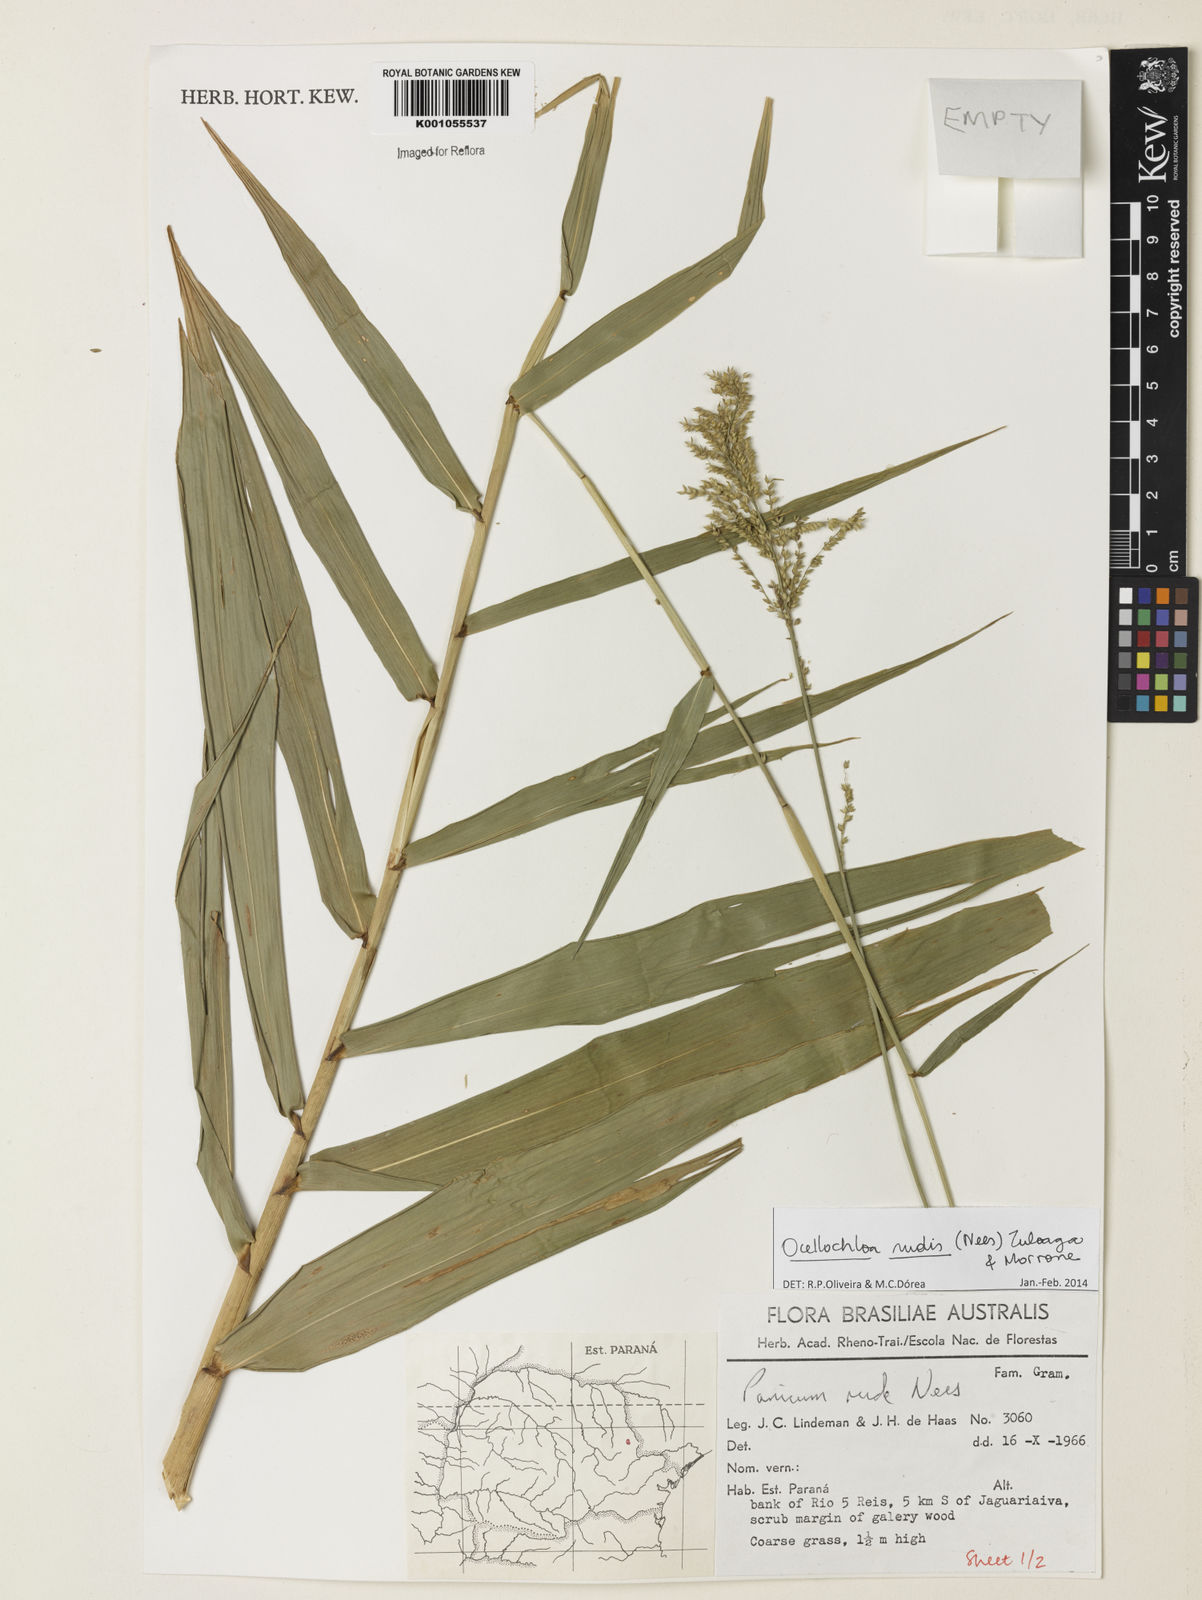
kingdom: Plantae
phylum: Tracheophyta
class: Liliopsida
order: Poales
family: Poaceae
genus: Ocellochloa
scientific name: Ocellochloa rudis
